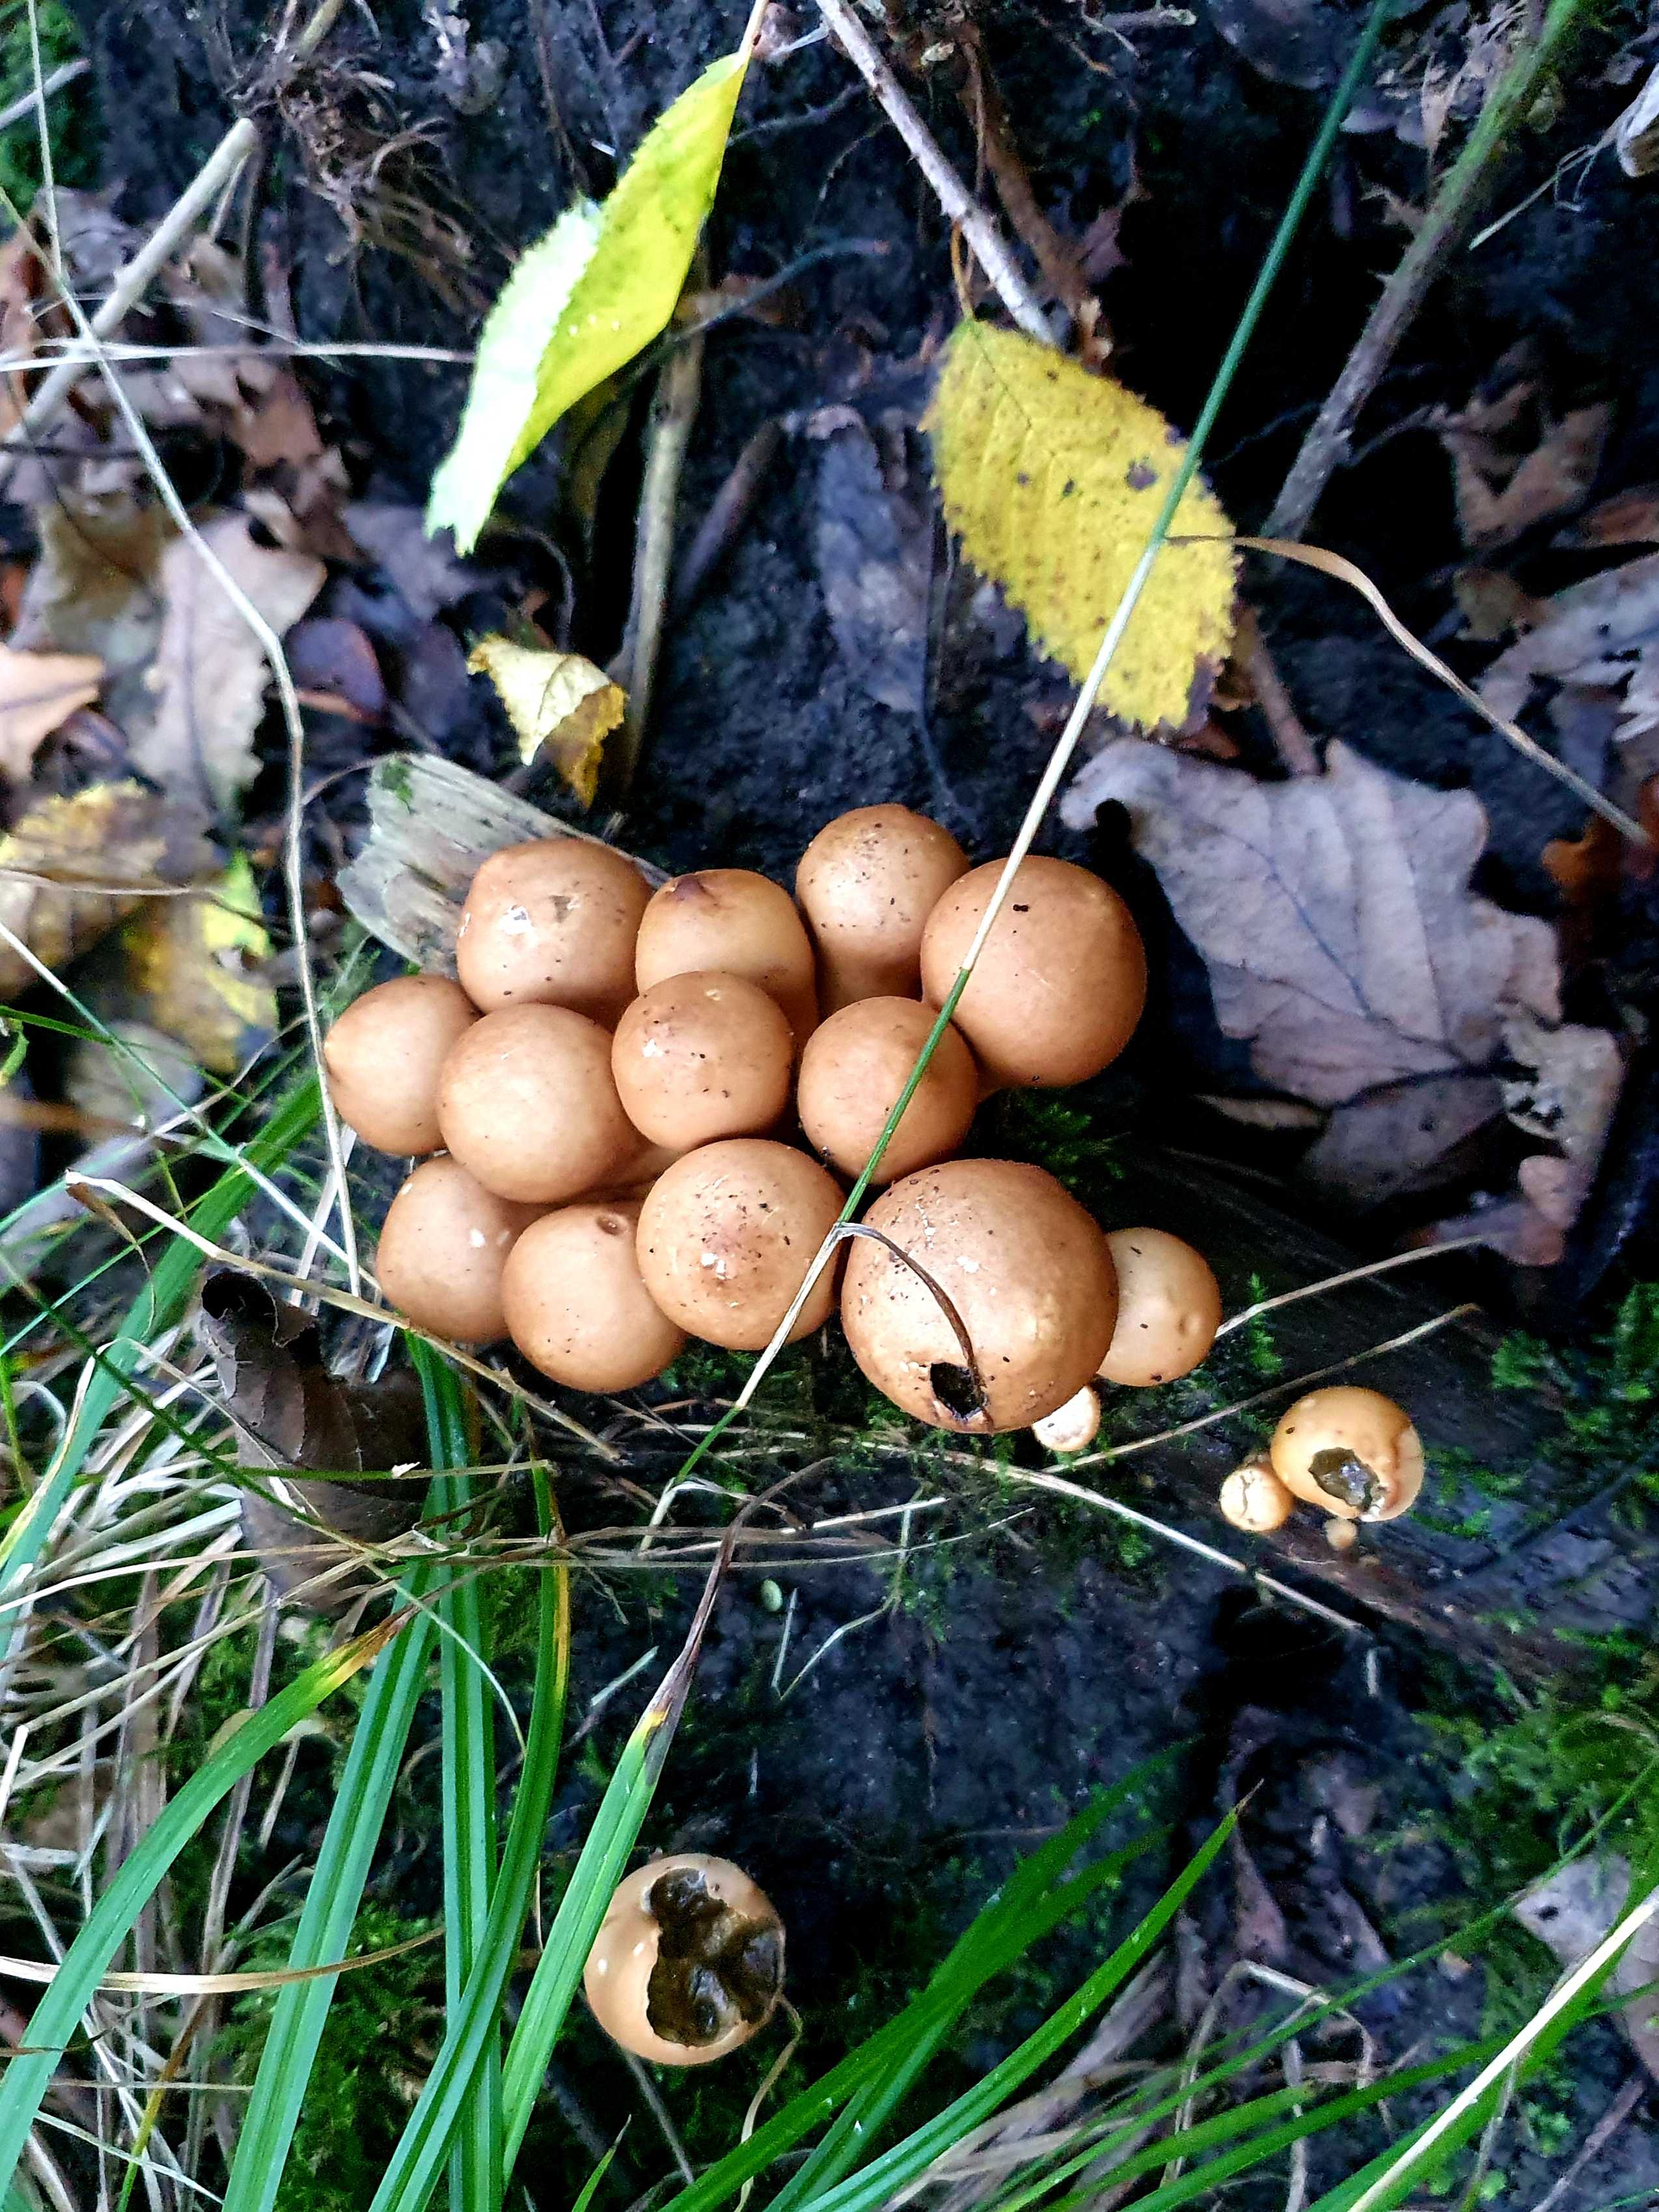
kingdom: Fungi
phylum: Basidiomycota
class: Agaricomycetes
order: Agaricales
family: Lycoperdaceae
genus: Apioperdon
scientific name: Apioperdon pyriforme
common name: pære-støvbold
